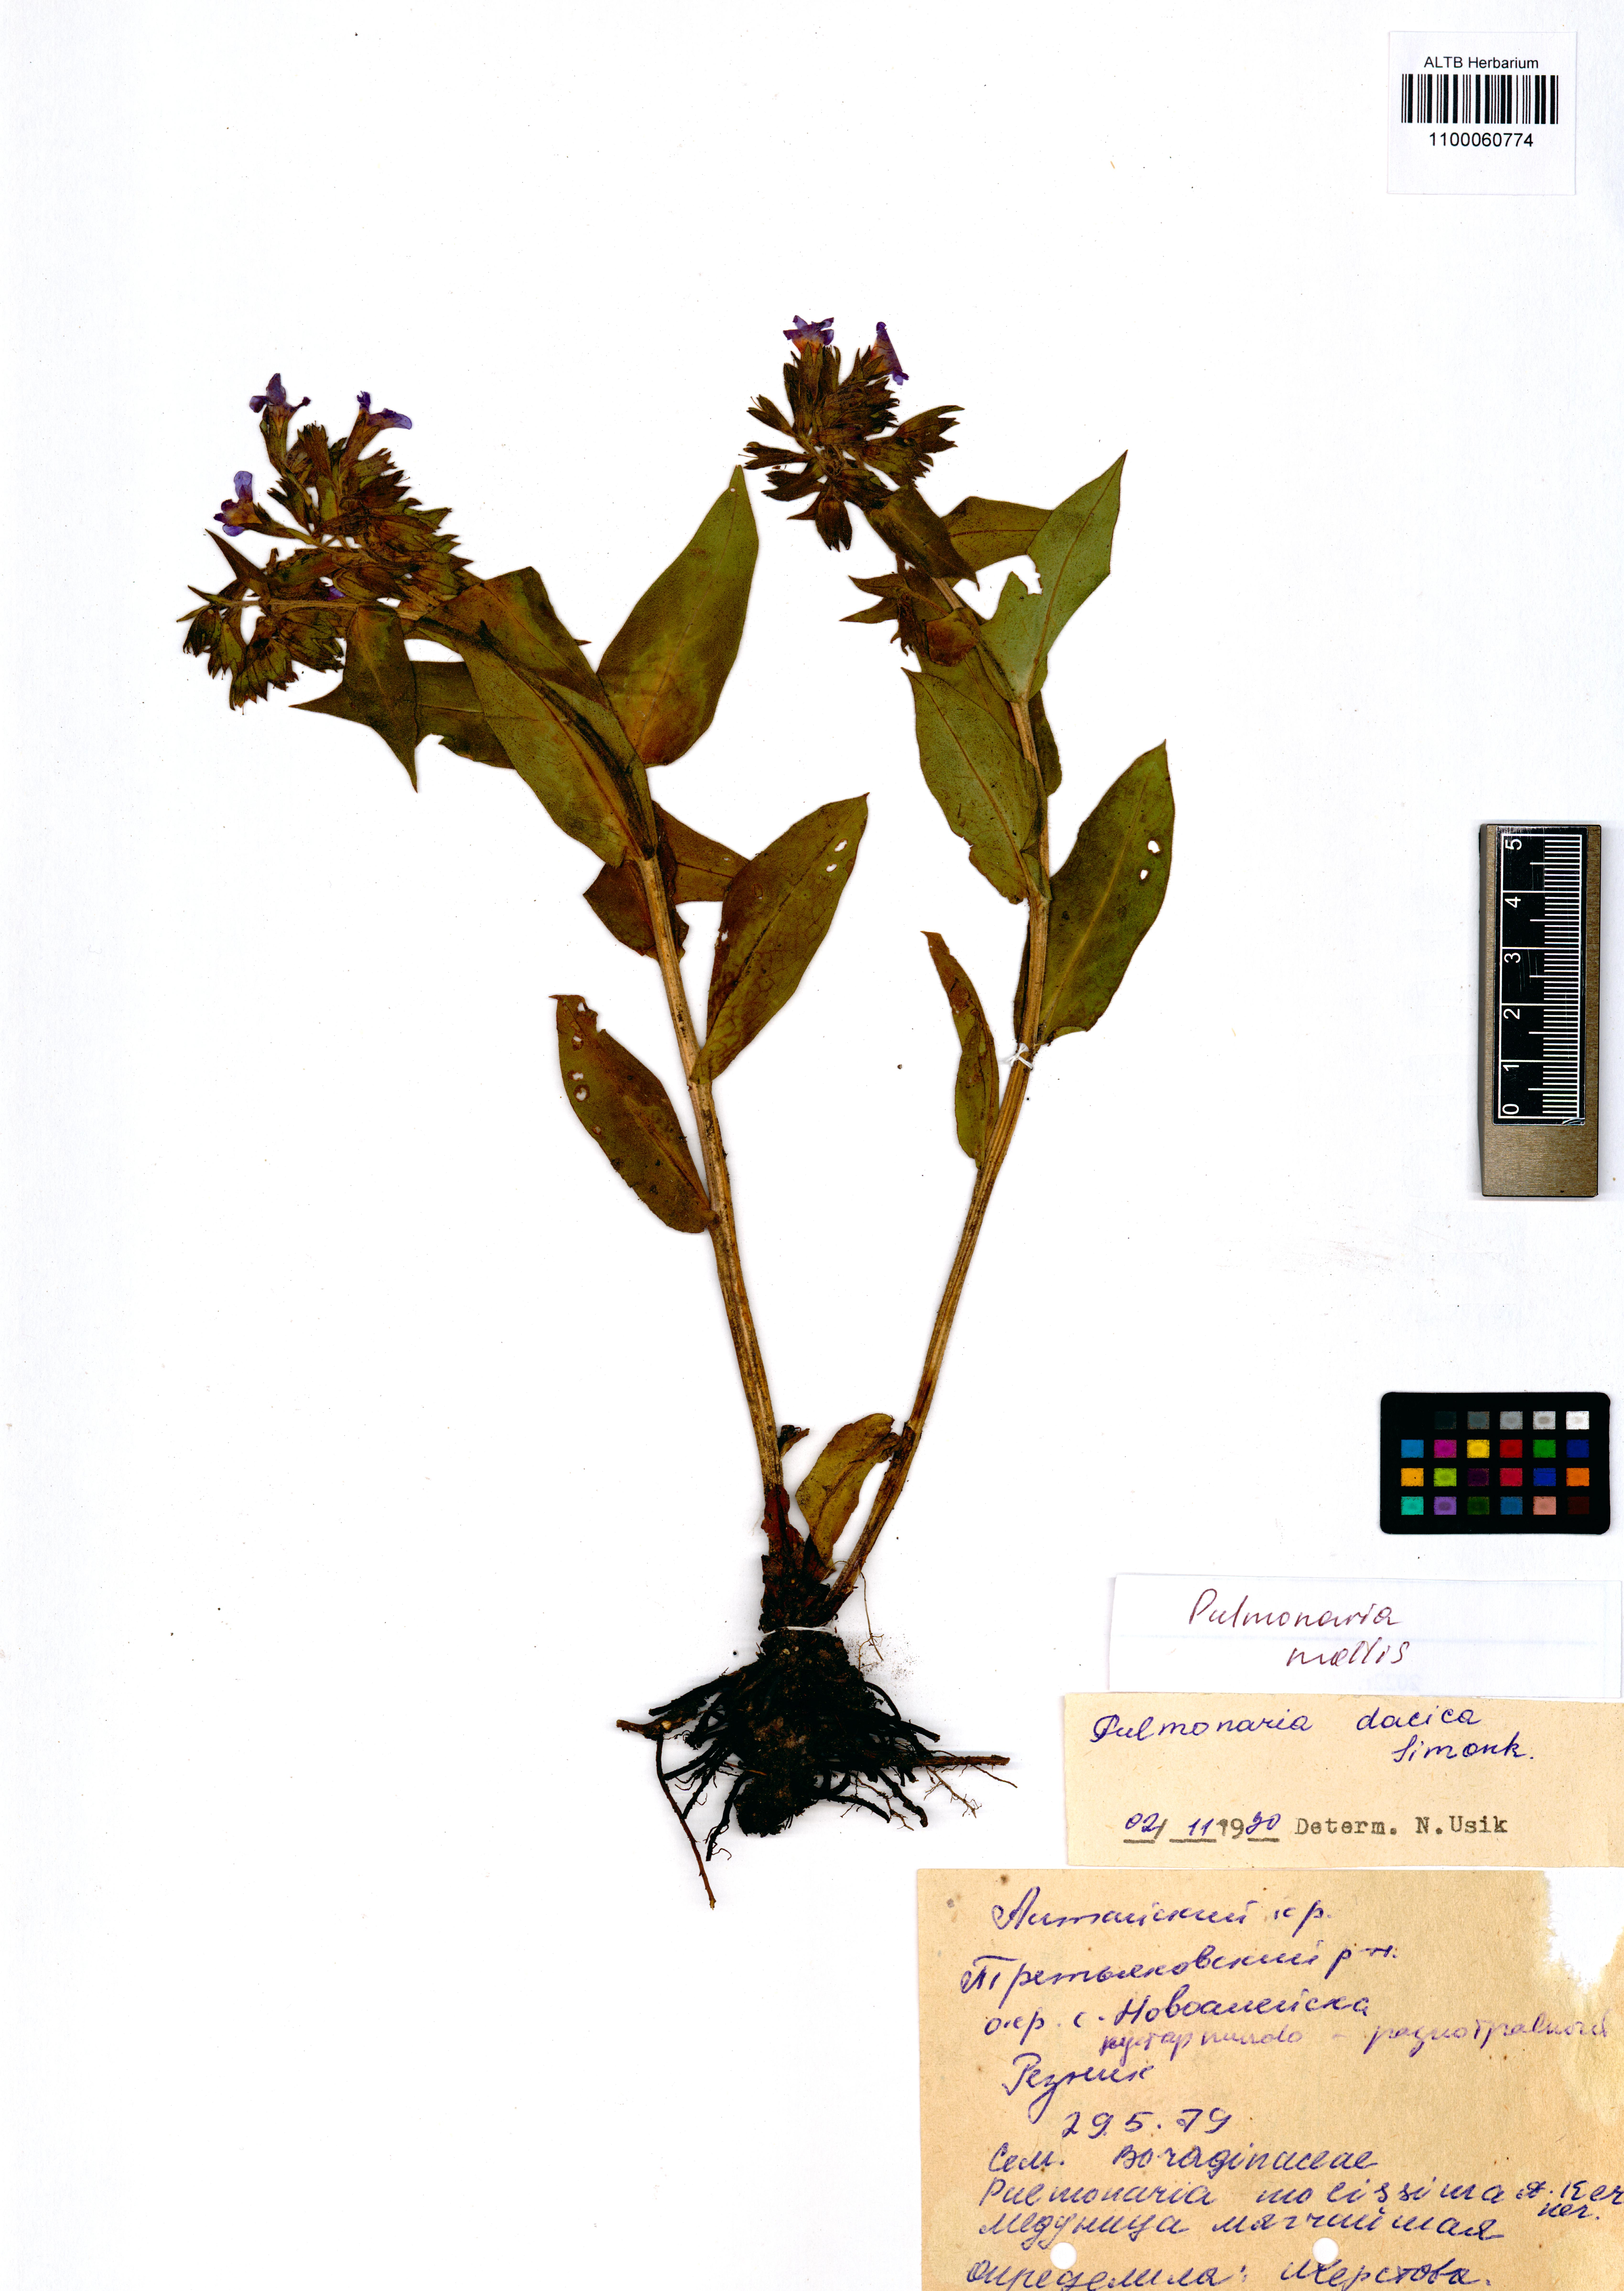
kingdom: Plantae
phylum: Tracheophyta
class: Magnoliopsida
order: Boraginales
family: Boraginaceae
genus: Pulmonaria
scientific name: Pulmonaria mollis
